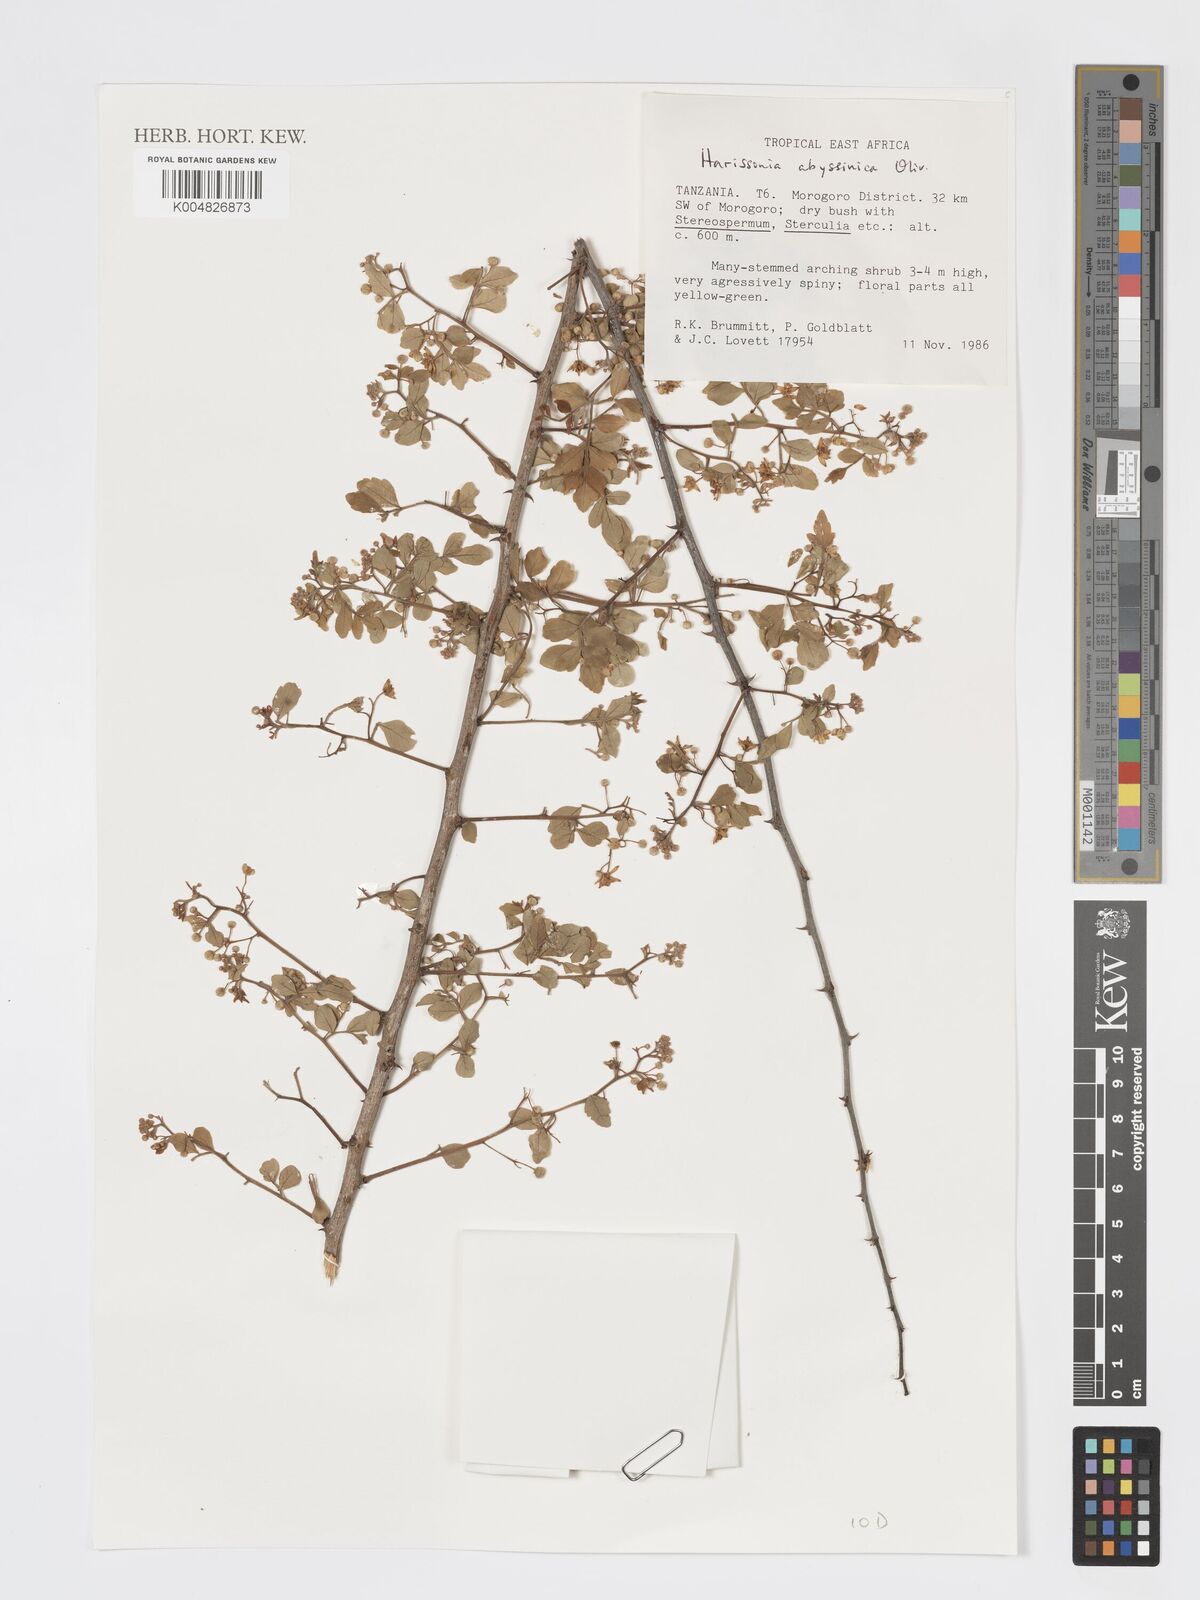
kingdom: Plantae
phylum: Tracheophyta
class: Magnoliopsida
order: Sapindales
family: Rutaceae
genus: Harrisonia
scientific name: Harrisonia abyssinica
